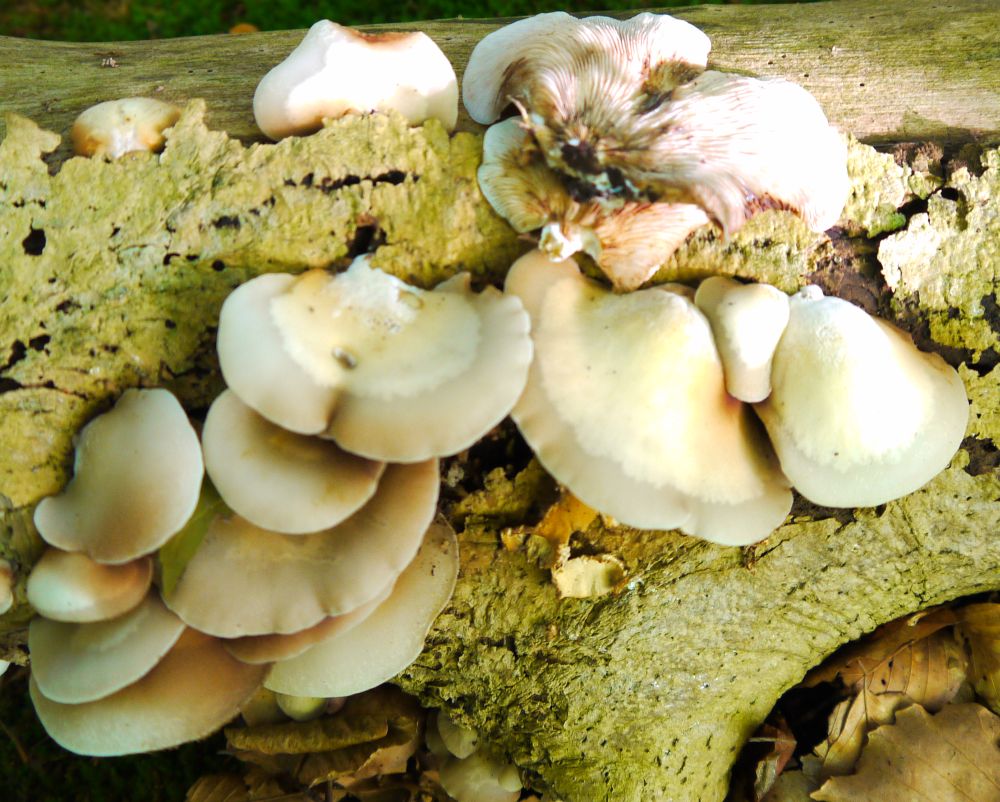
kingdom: Fungi
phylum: Basidiomycota
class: Agaricomycetes
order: Agaricales
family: Crepidotaceae
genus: Crepidotus
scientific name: Crepidotus mollis
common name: blød muslingesvamp
